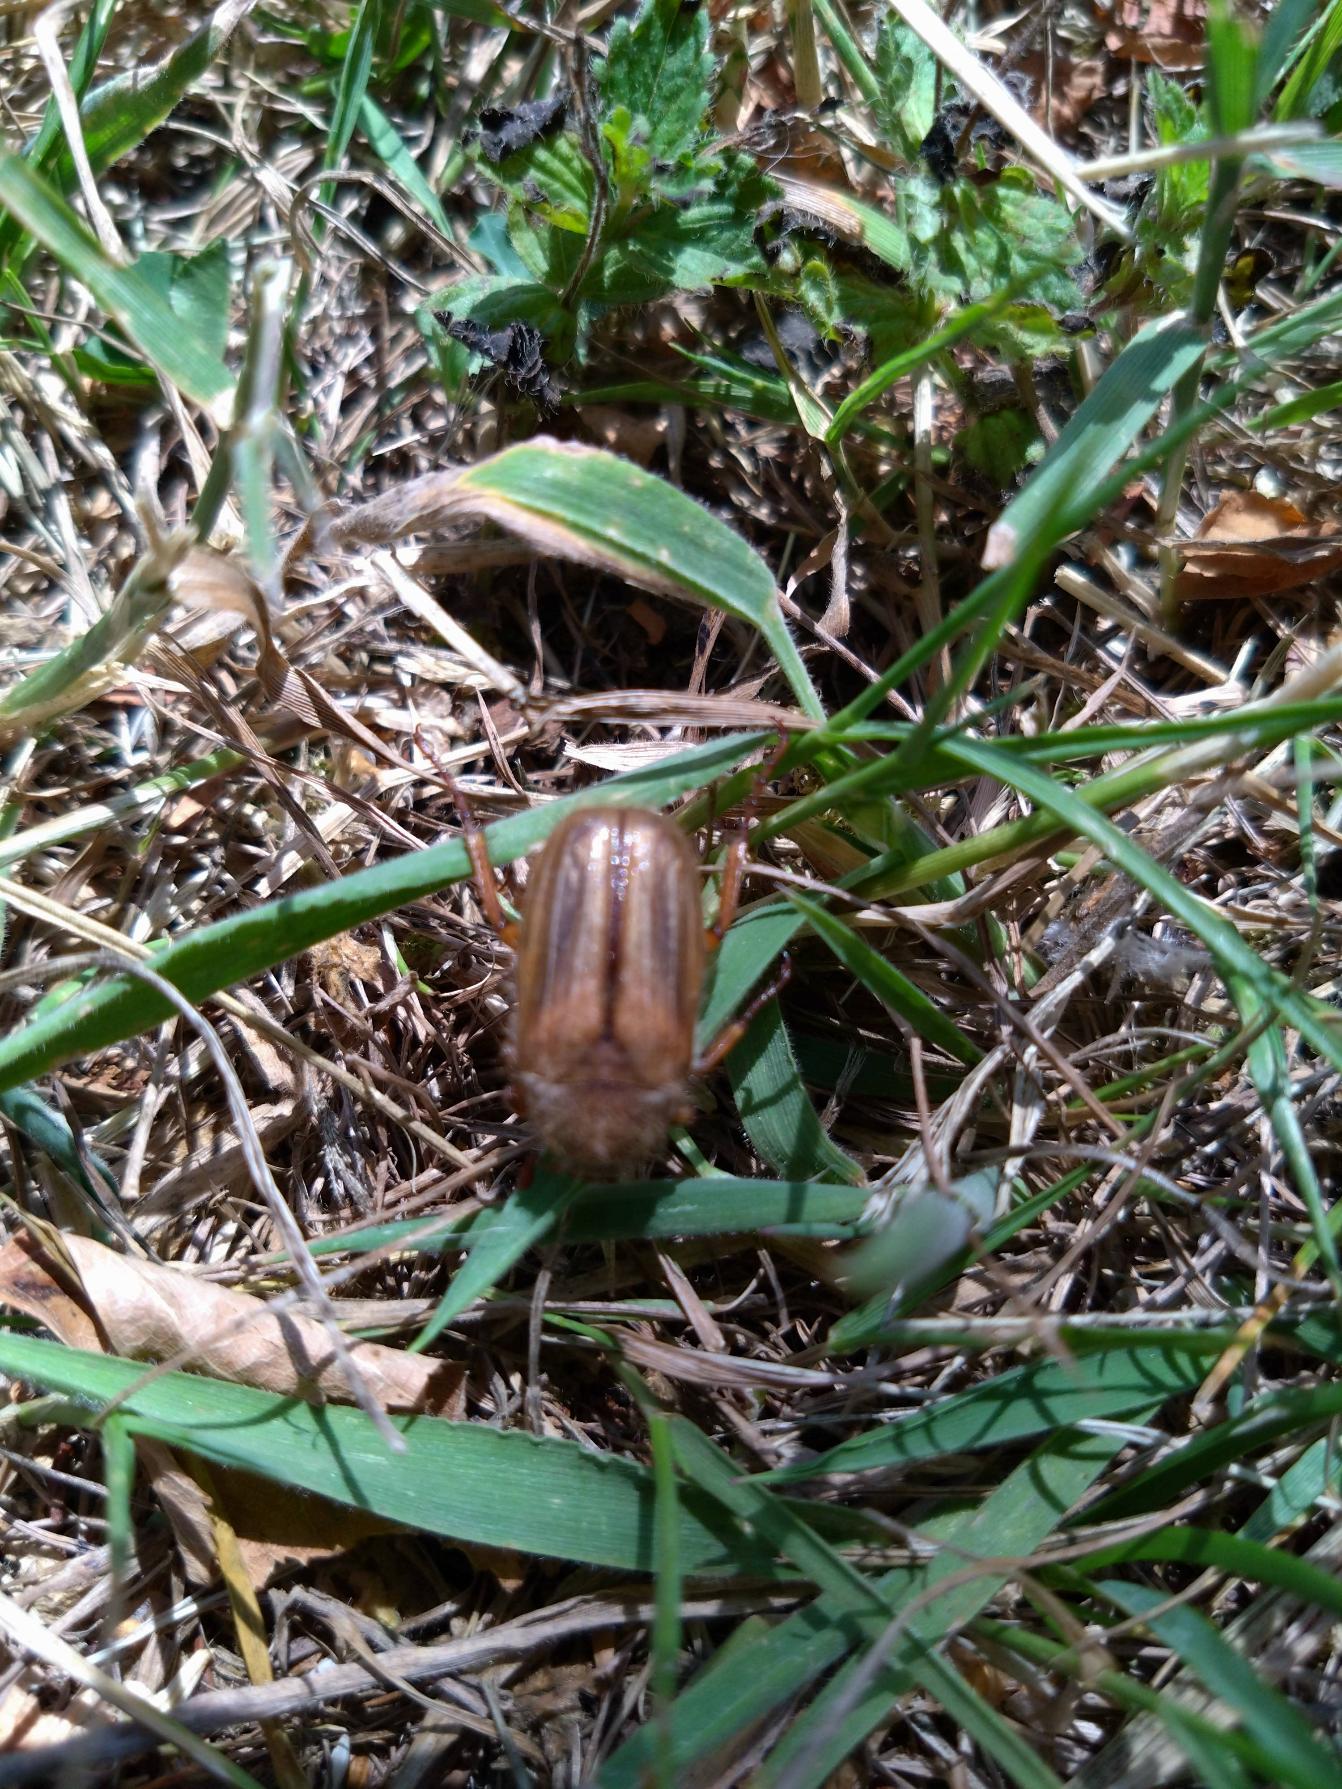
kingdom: Animalia
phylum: Arthropoda
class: Insecta
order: Coleoptera
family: Scarabaeidae
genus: Amphimallon
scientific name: Amphimallon solstitiale
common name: Sankthansoldenborre
